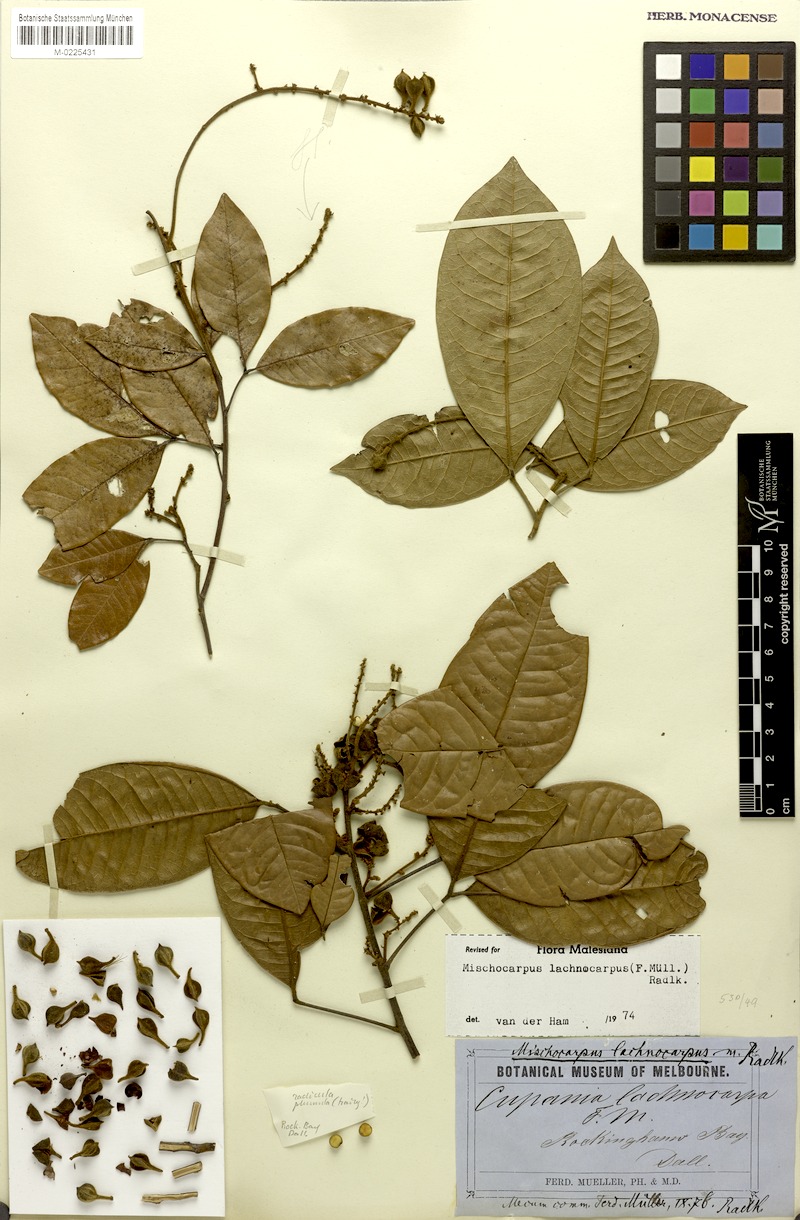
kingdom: Plantae
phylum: Tracheophyta
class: Magnoliopsida
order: Sapindales
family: Sapindaceae
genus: Mischocarpus
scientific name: Mischocarpus lachnocarpus
